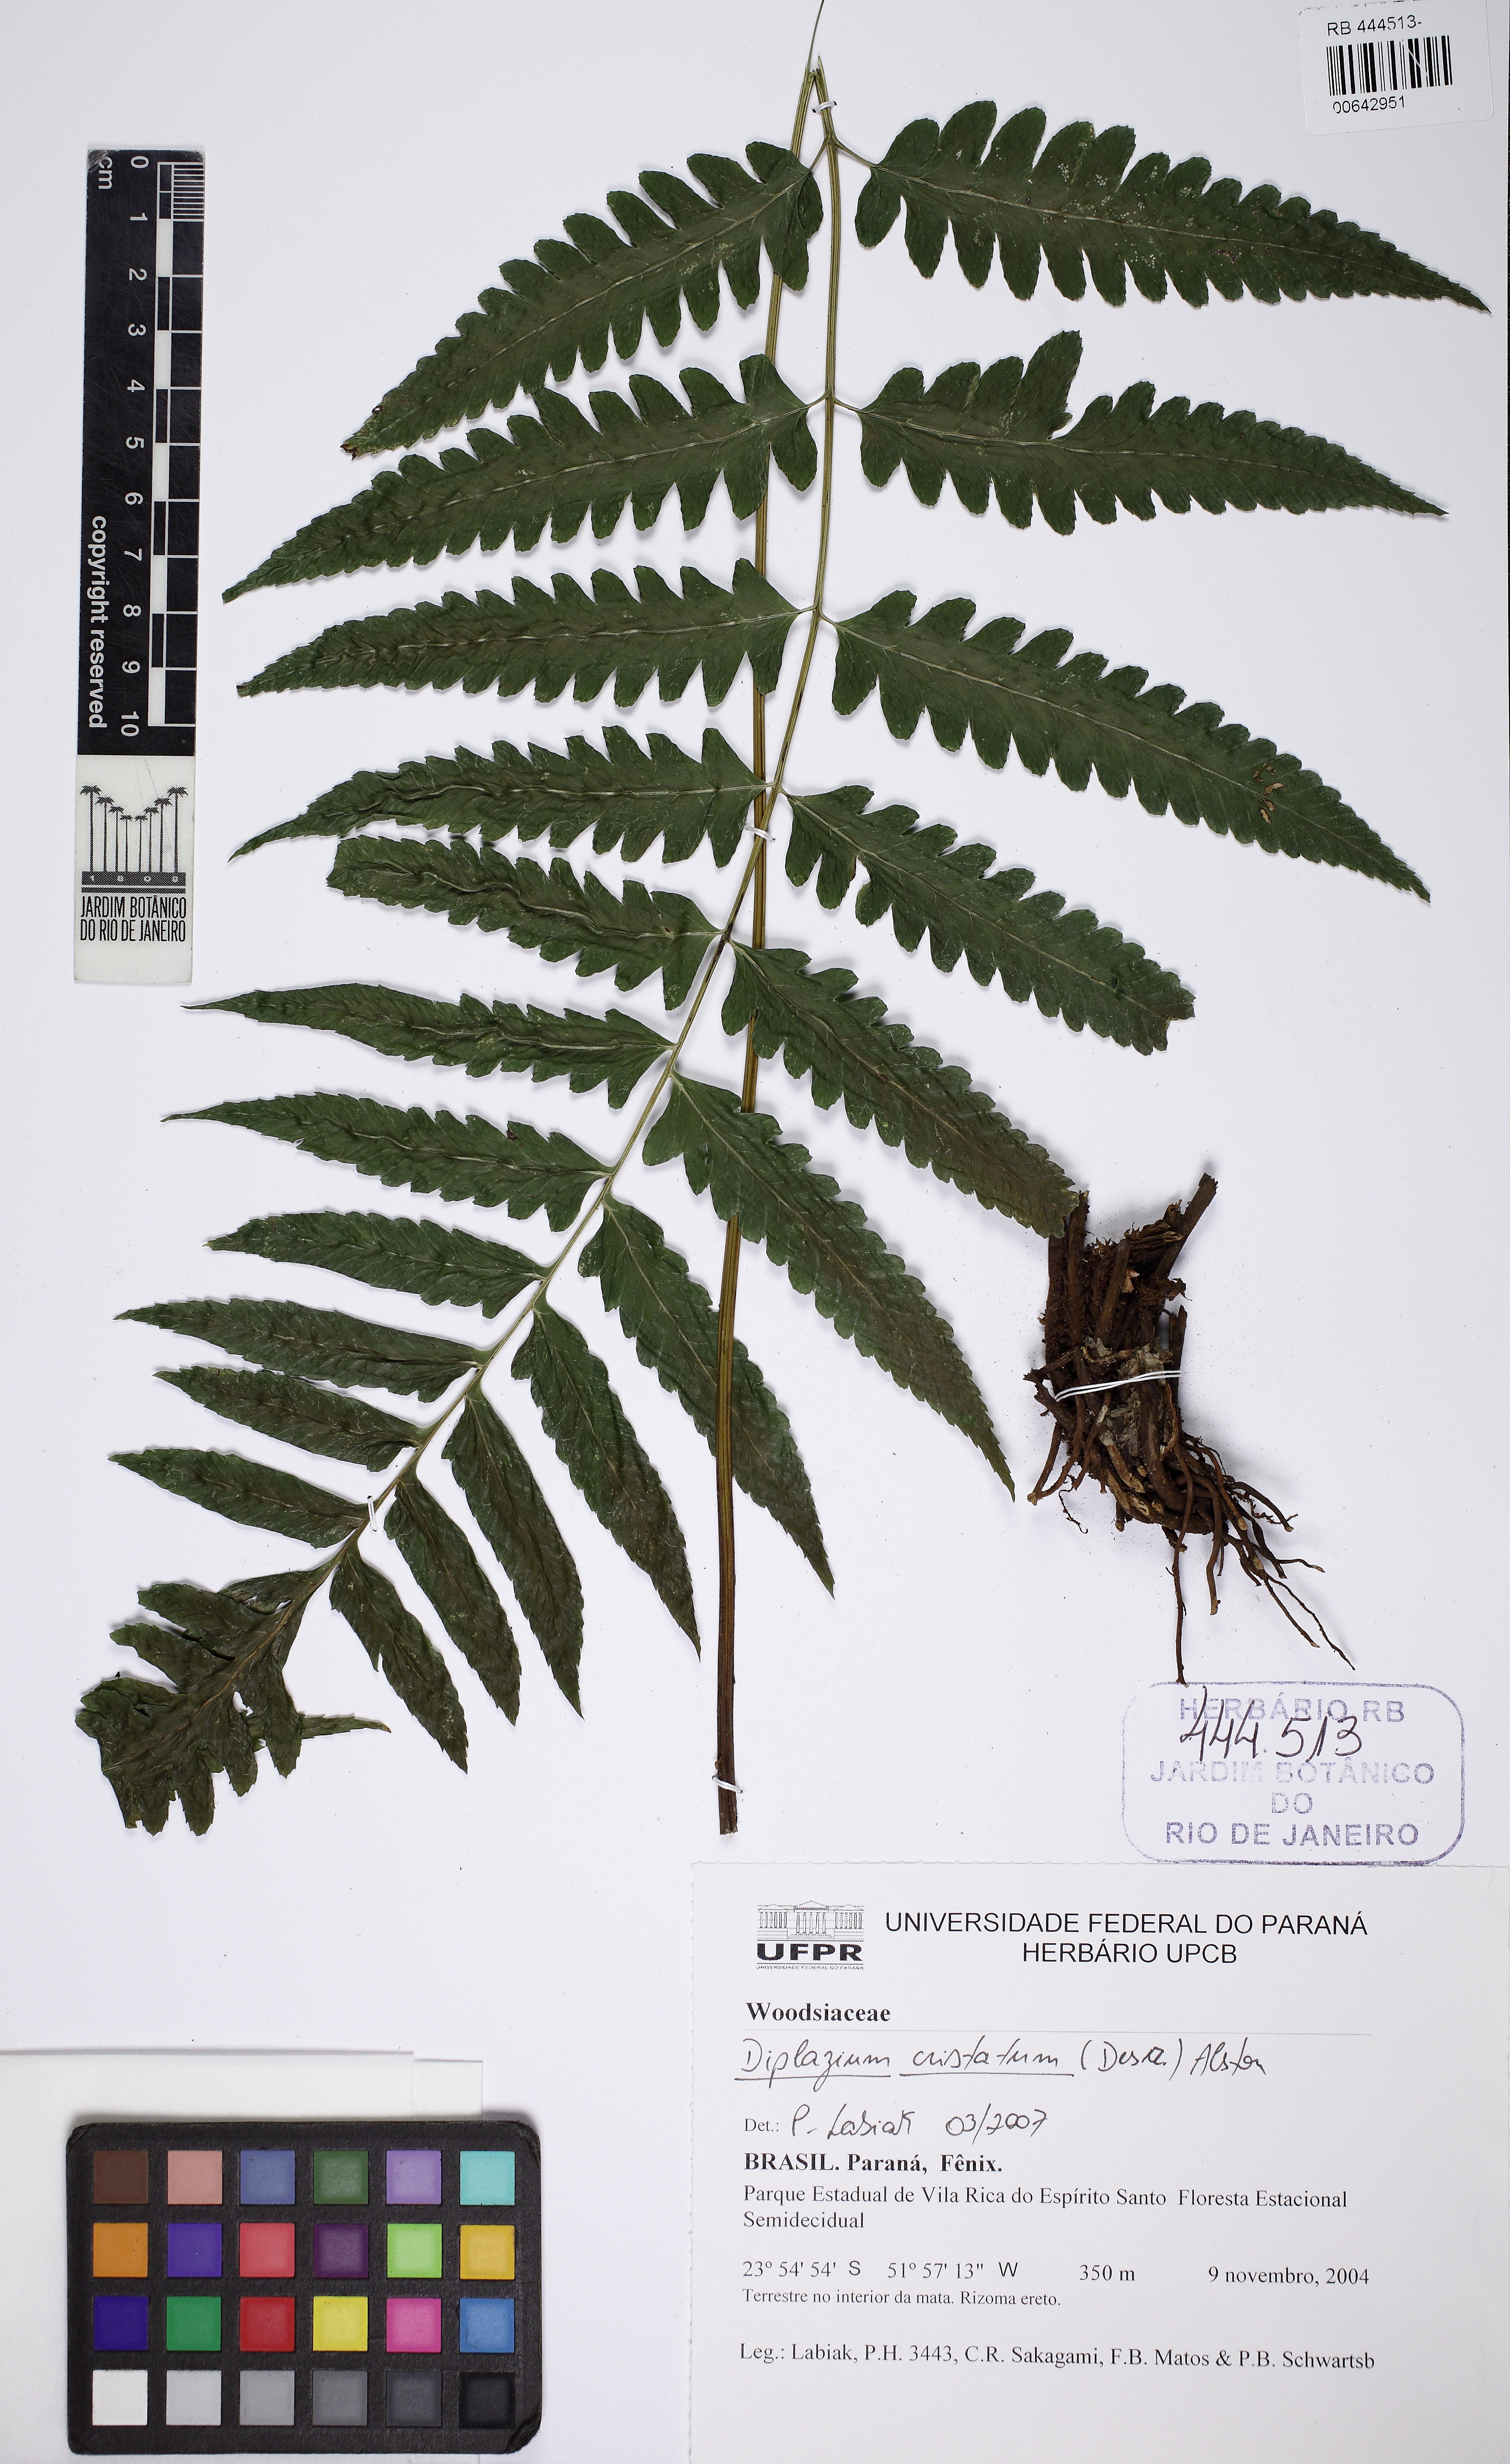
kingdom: Plantae
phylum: Tracheophyta
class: Polypodiopsida
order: Polypodiales
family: Athyriaceae
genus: Diplazium
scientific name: Diplazium cristatum
